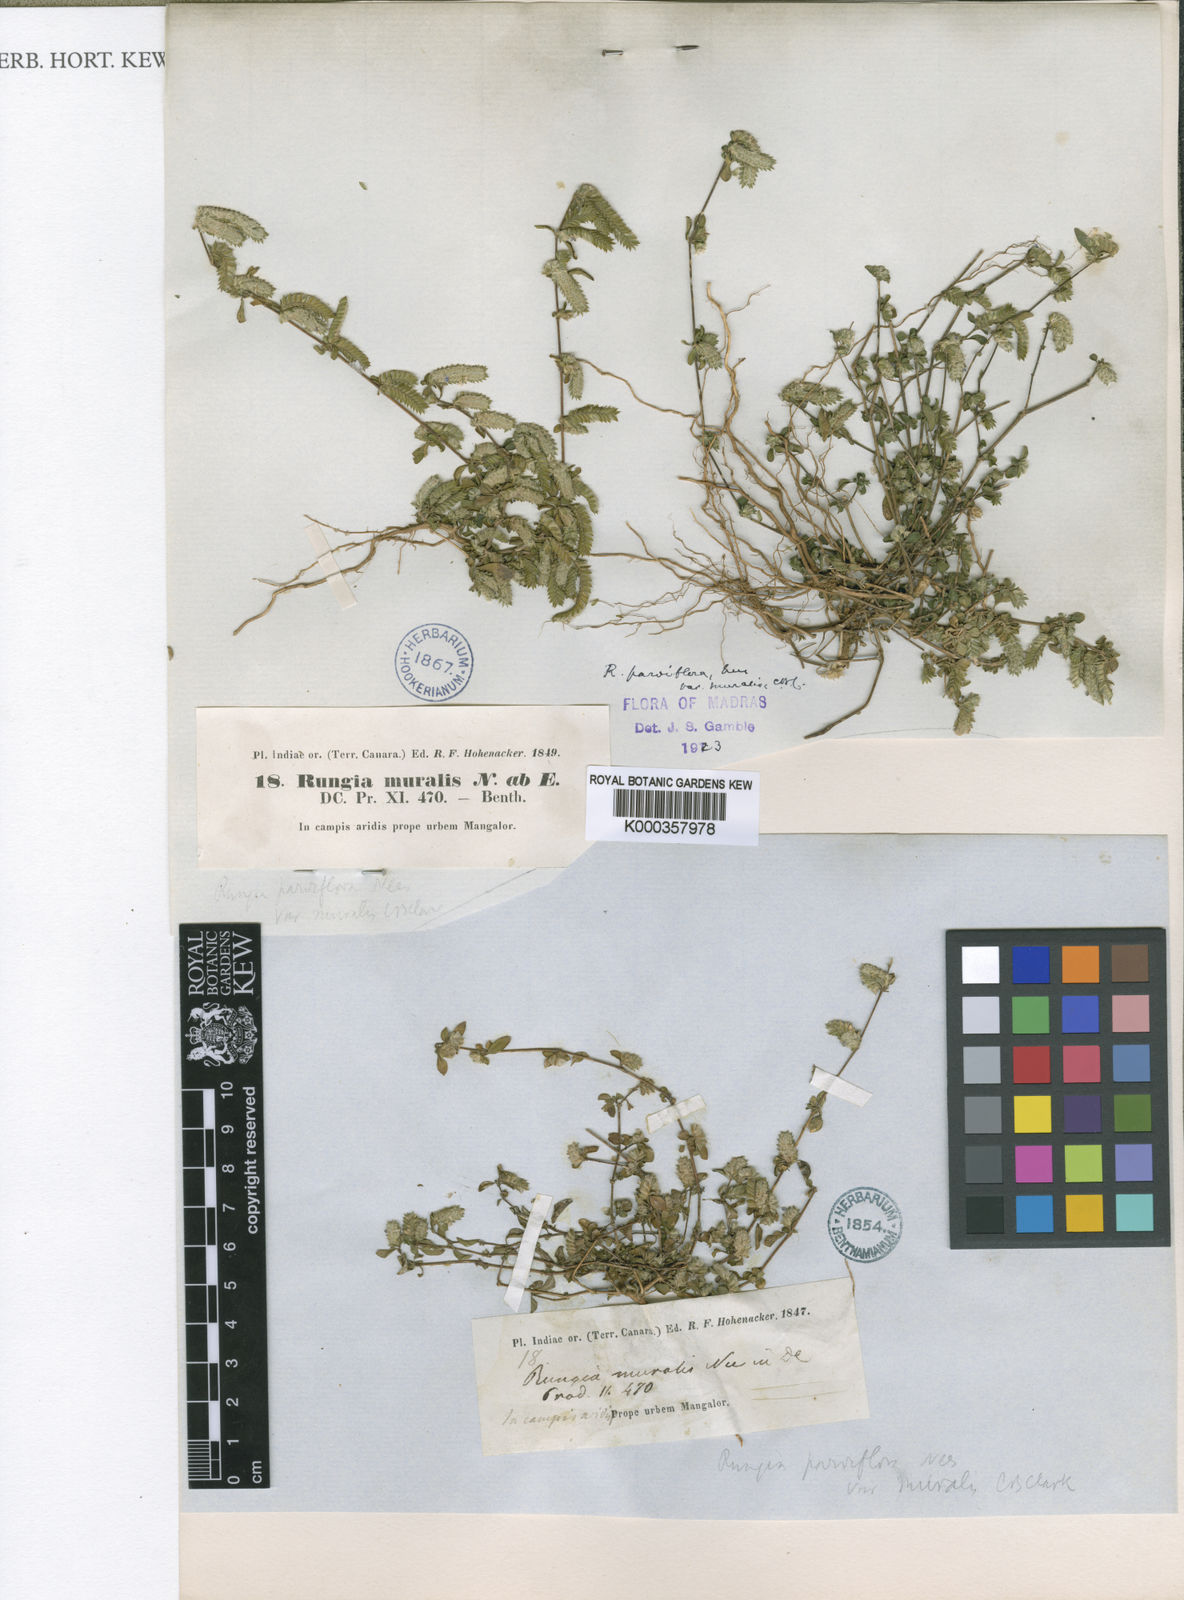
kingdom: Plantae
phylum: Tracheophyta
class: Magnoliopsida
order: Lamiales
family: Acanthaceae
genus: Rungia
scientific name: Rungia pectinata
